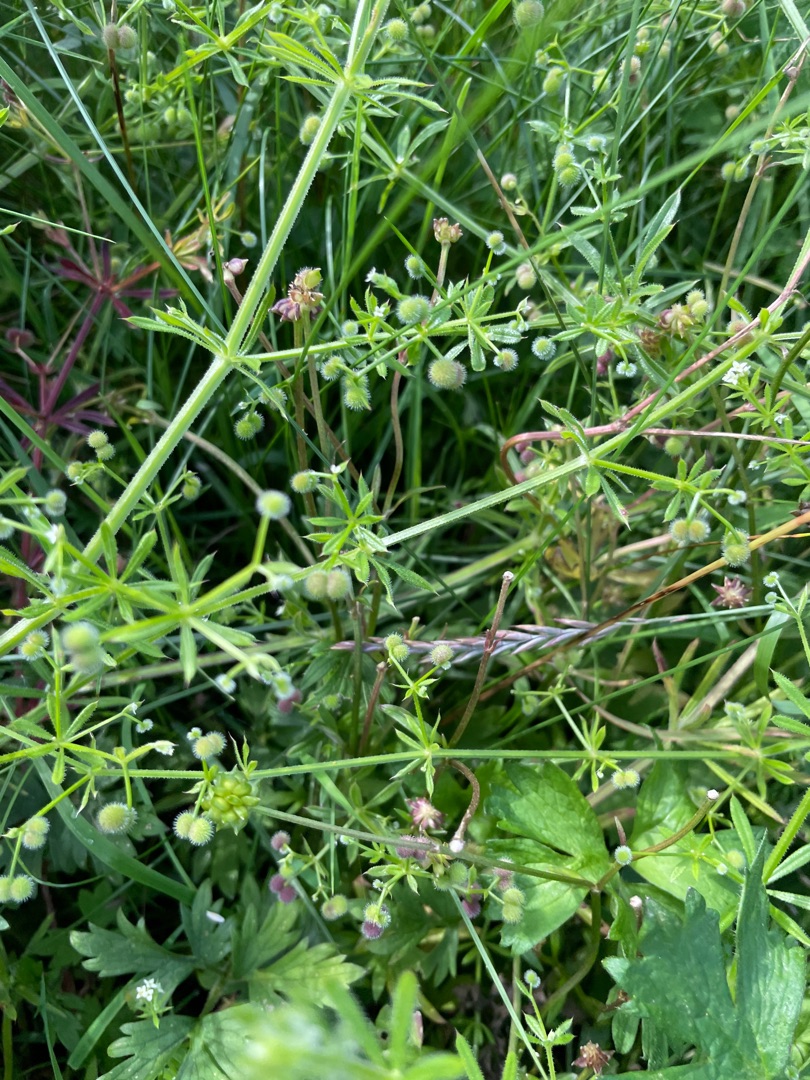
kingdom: Plantae
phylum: Tracheophyta
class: Magnoliopsida
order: Gentianales
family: Rubiaceae
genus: Galium
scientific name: Galium aparine
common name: Burre-snerre
